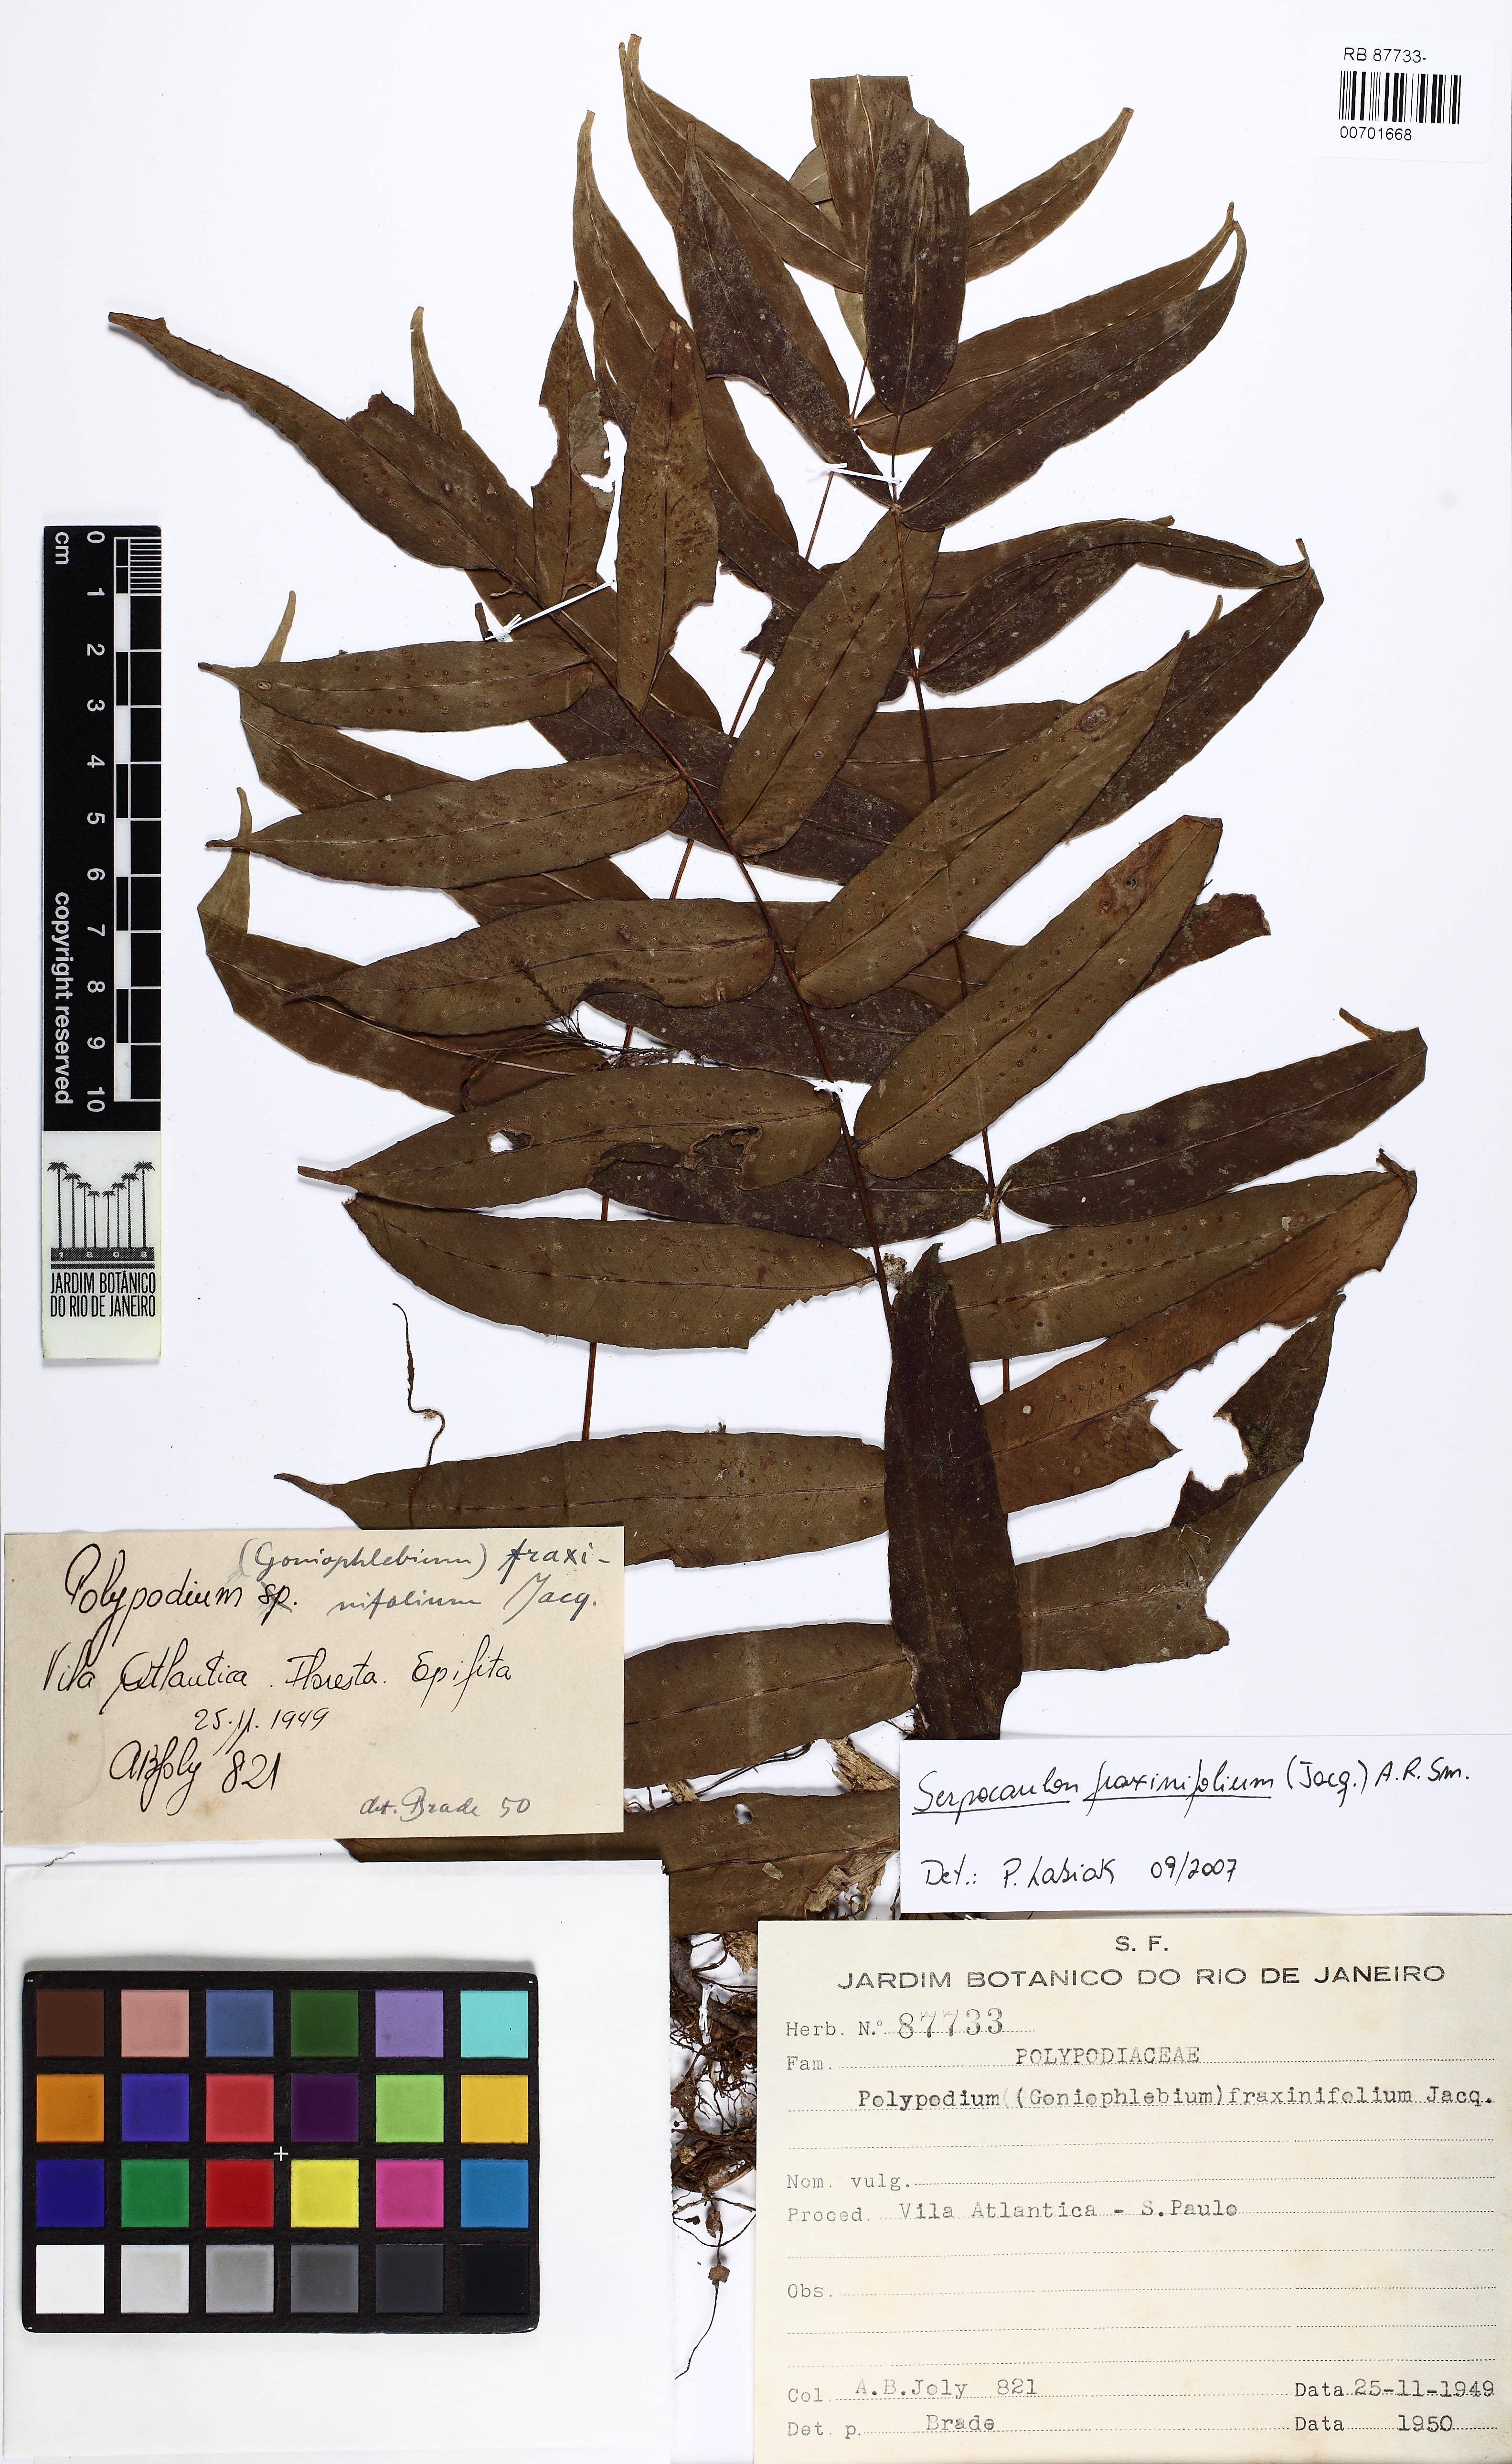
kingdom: Plantae
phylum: Tracheophyta
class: Polypodiopsida
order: Polypodiales
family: Polypodiaceae
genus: Serpocaulon
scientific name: Serpocaulon fraxinifolium
